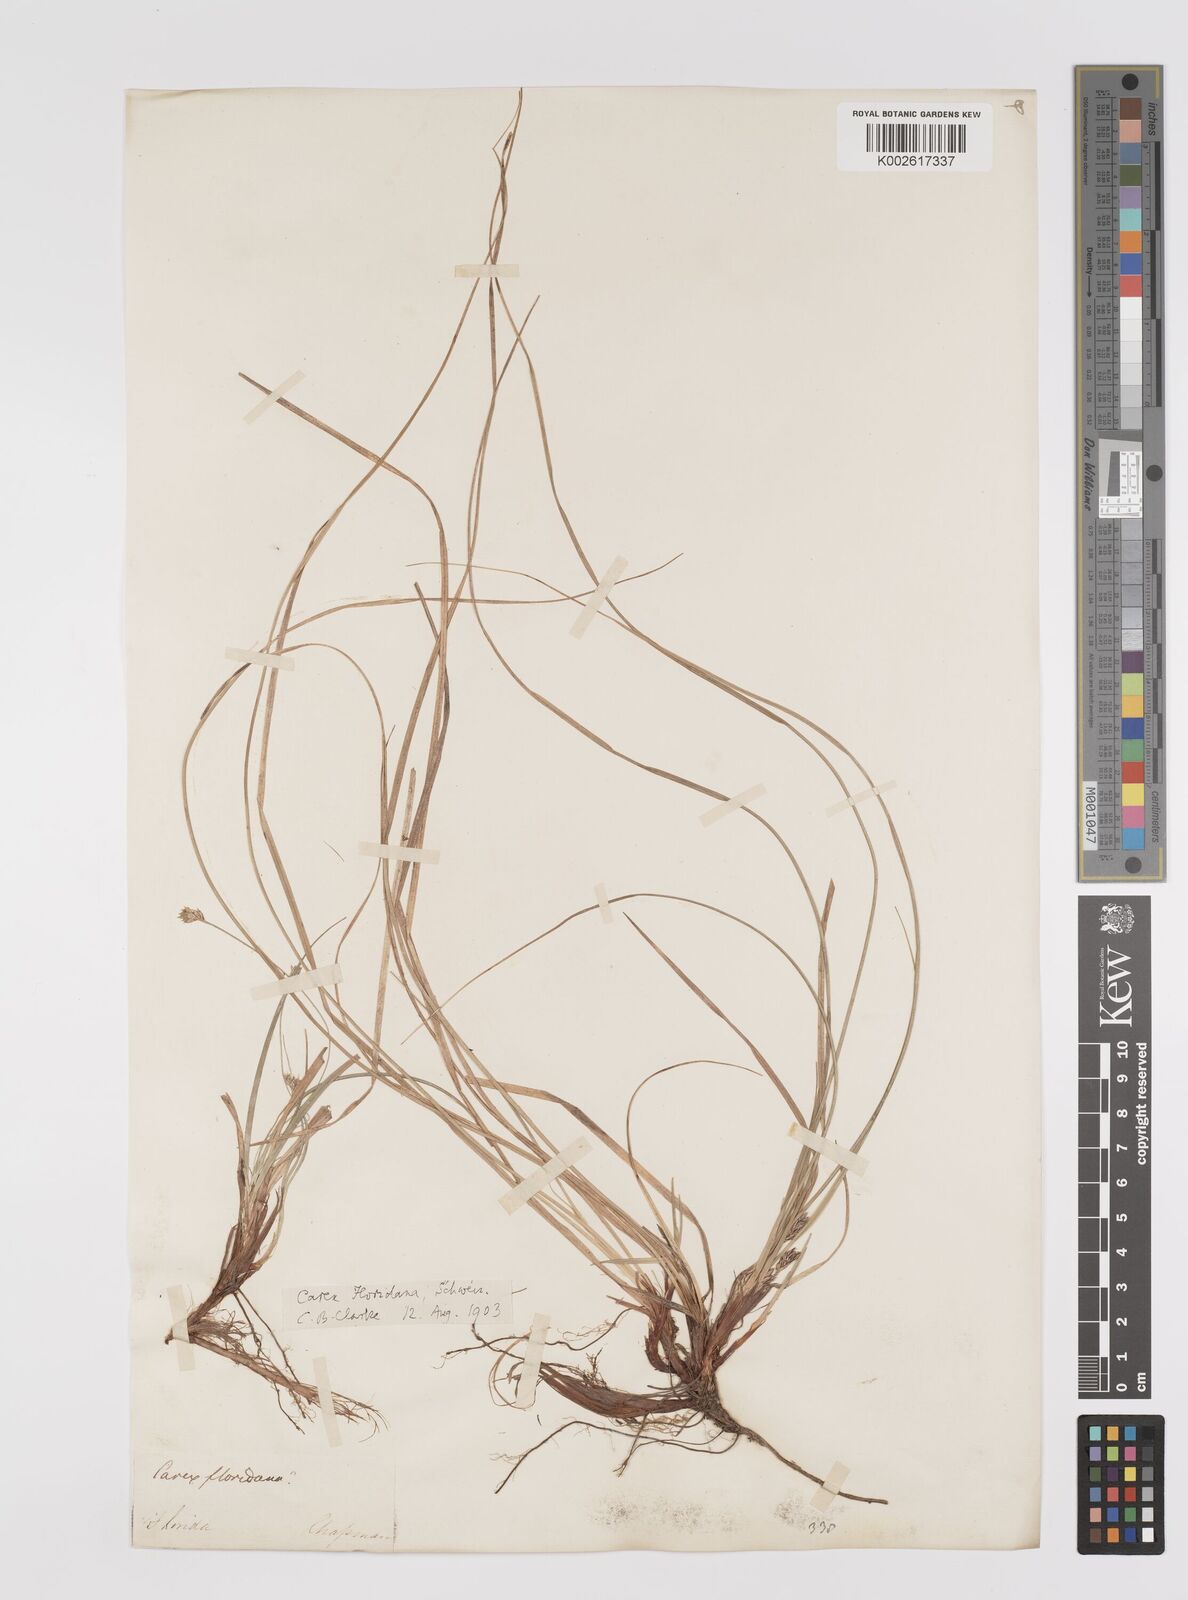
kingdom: Plantae
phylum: Tracheophyta
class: Liliopsida
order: Poales
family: Cyperaceae
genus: Carex
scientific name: Carex floridana
